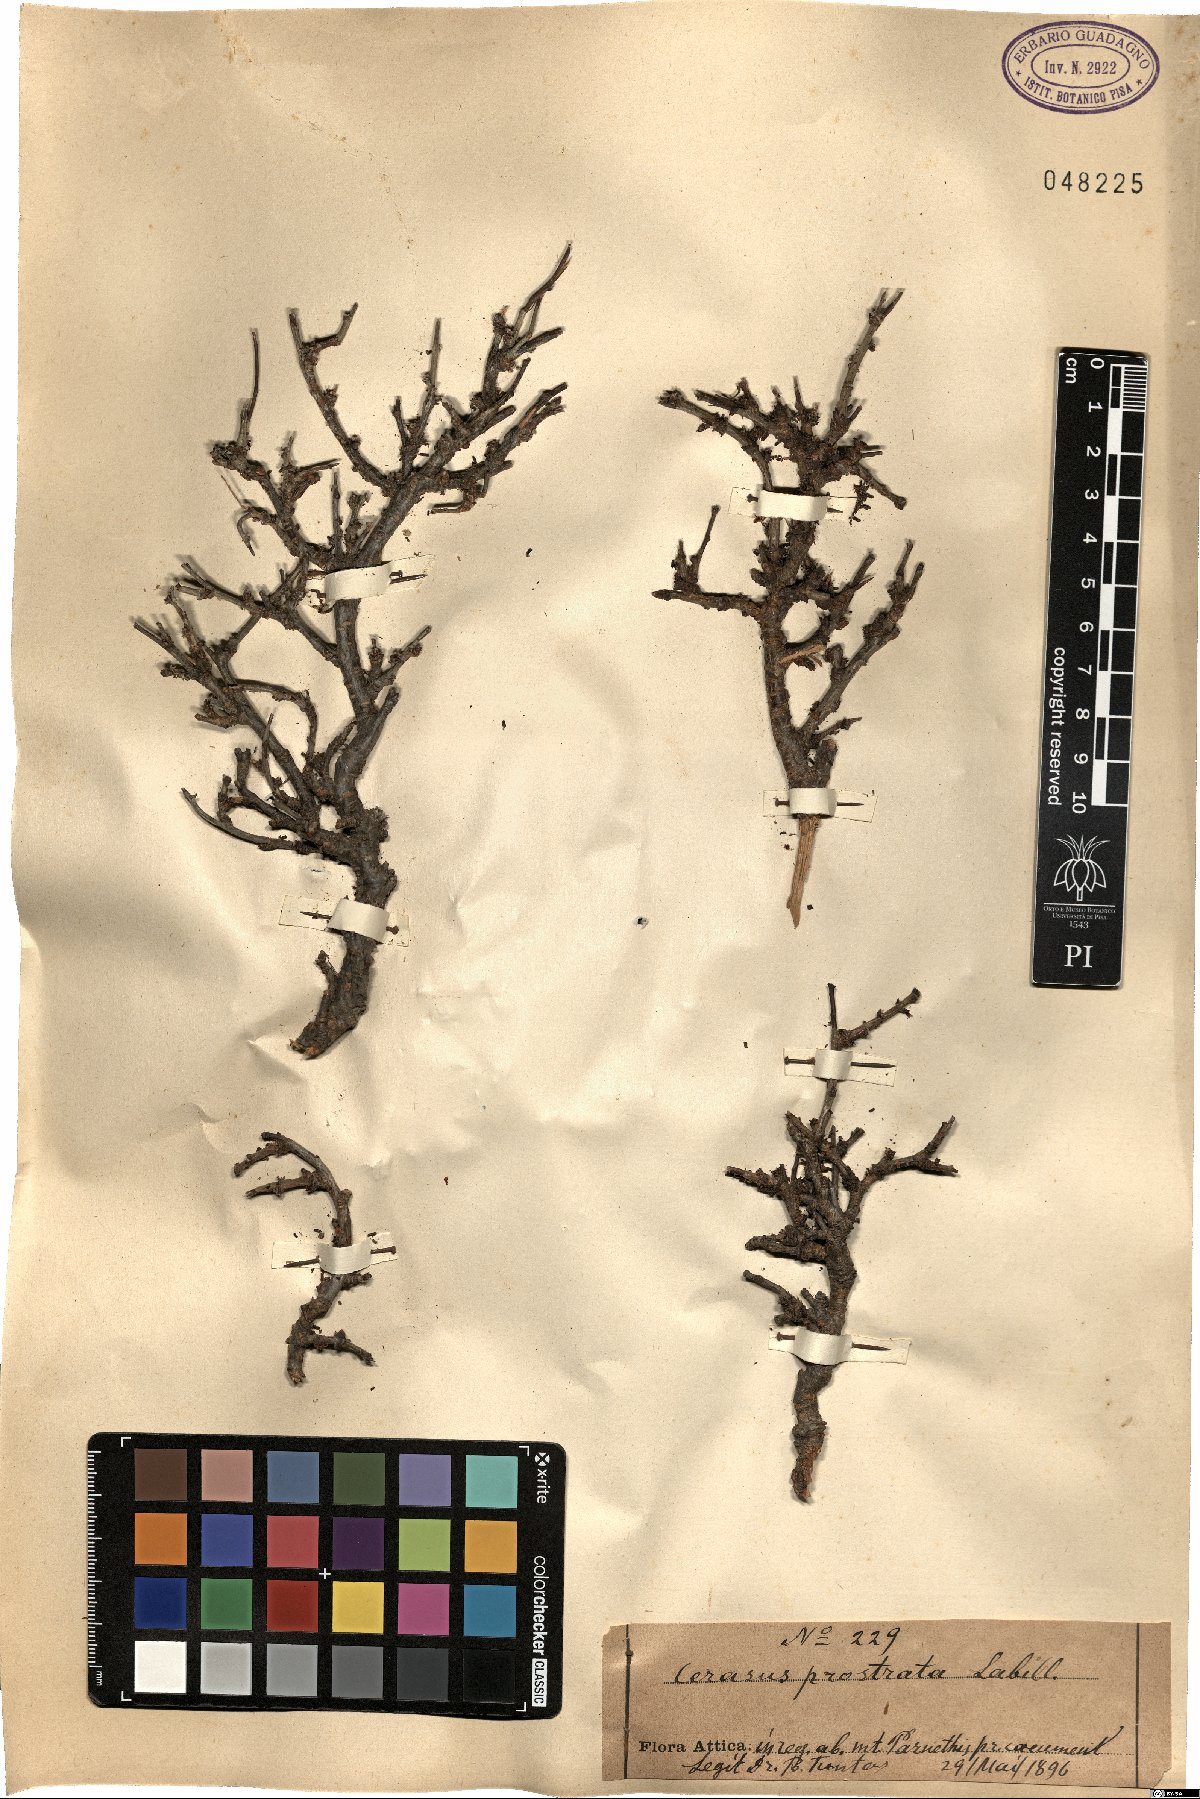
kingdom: Plantae
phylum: Tracheophyta
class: Magnoliopsida
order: Rosales
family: Rosaceae
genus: Prunus
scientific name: Prunus prostrata
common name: Mountain cherry
